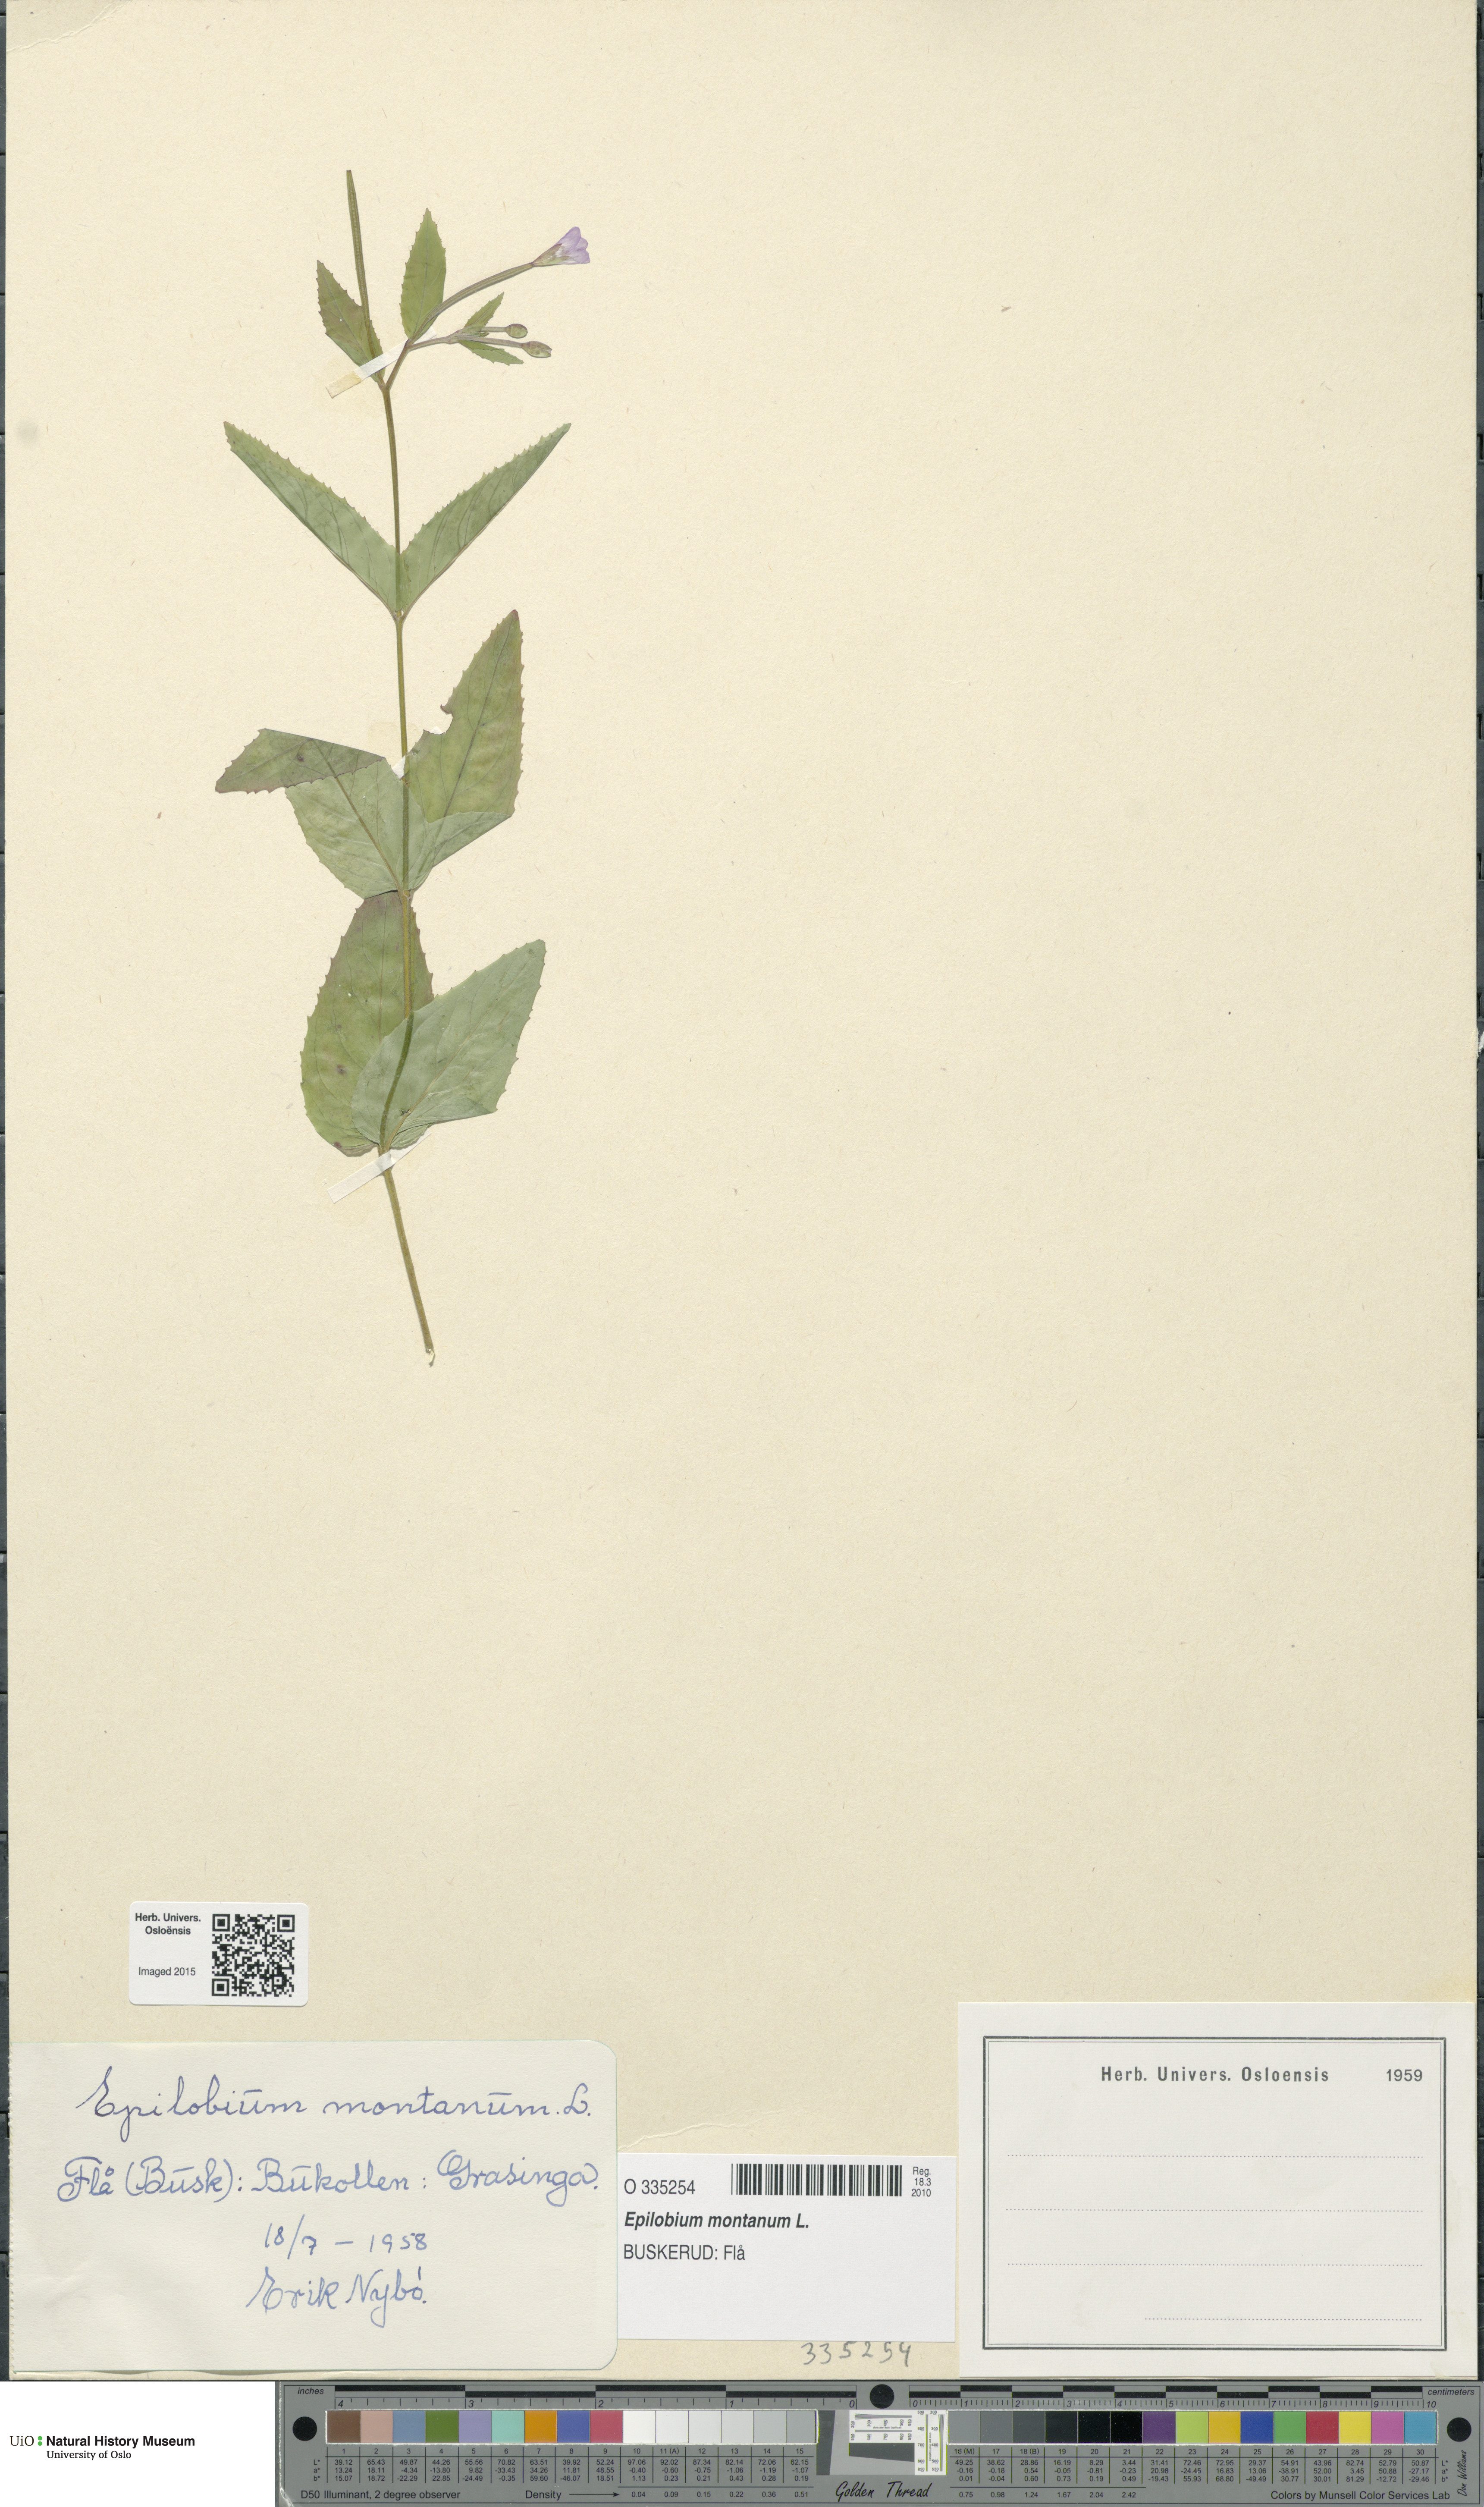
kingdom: Plantae
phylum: Tracheophyta
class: Magnoliopsida
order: Myrtales
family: Onagraceae
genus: Epilobium
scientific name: Epilobium montanum
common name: Broad-leaved willowherb
